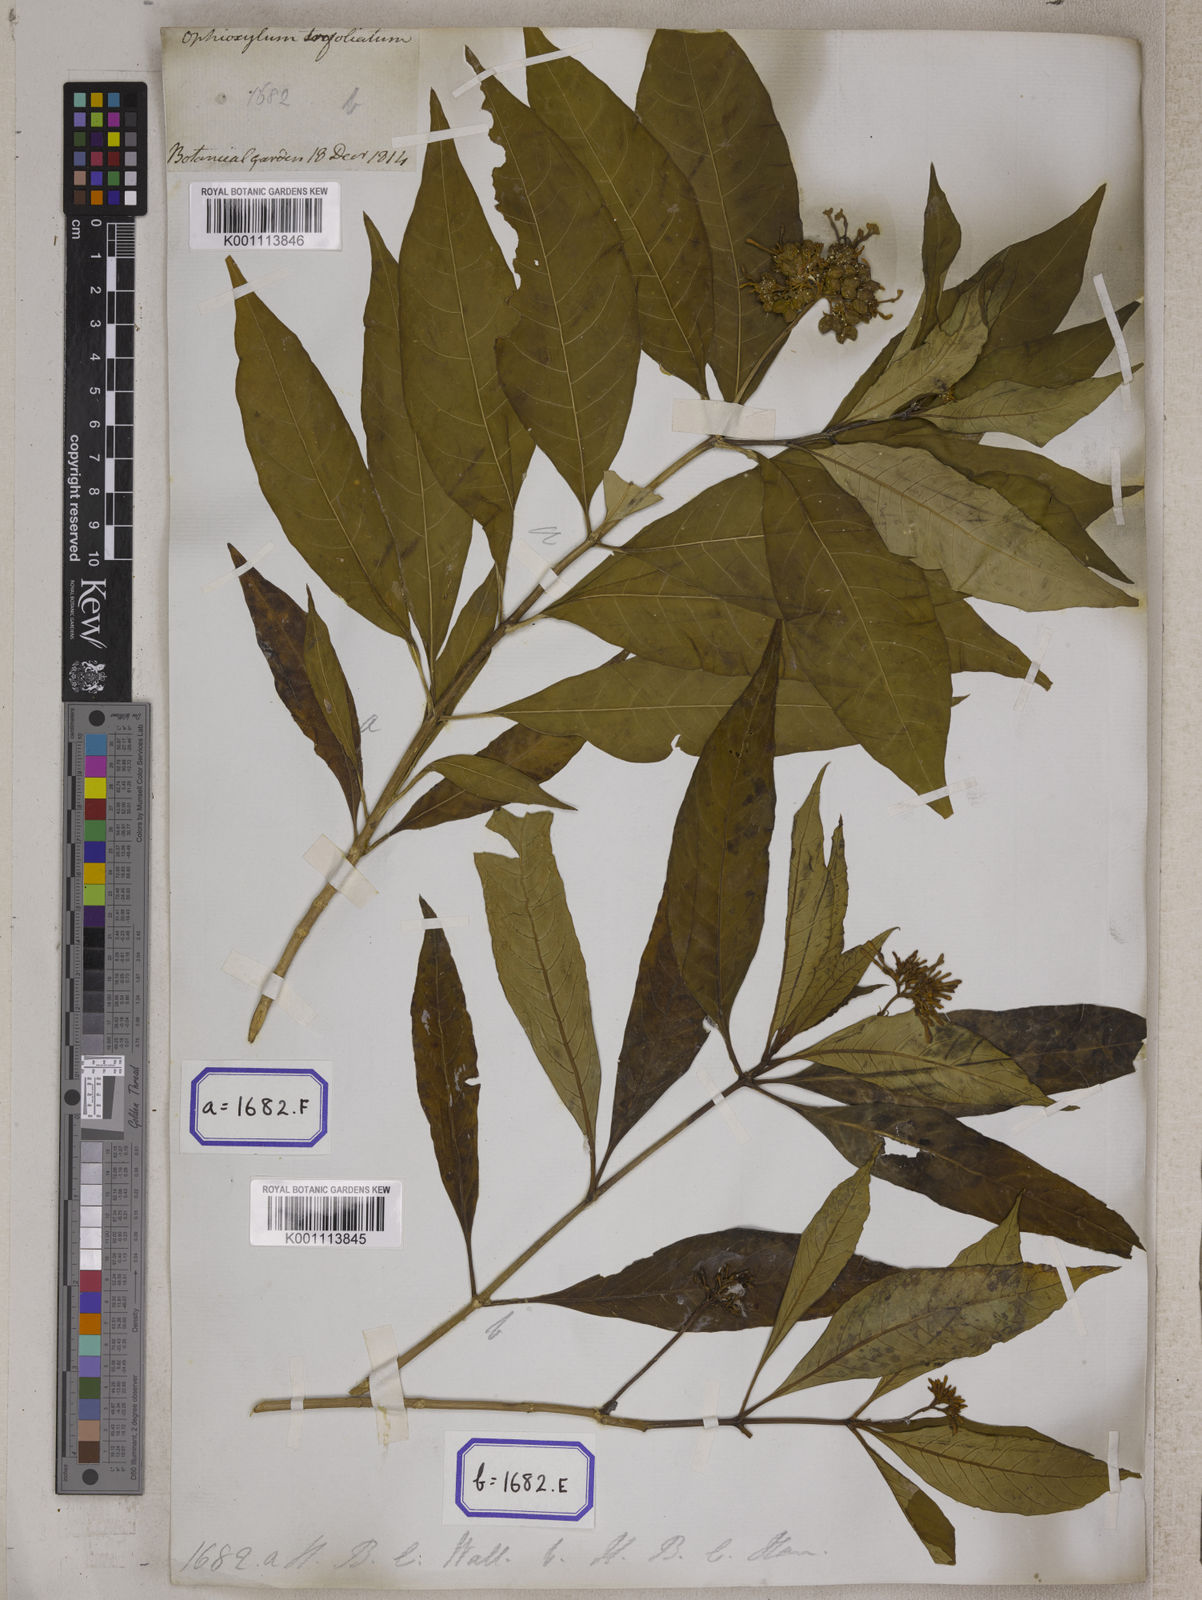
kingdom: Plantae
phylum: Tracheophyta
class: Magnoliopsida
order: Gentianales
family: Apocynaceae
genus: Rauvolfia
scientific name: Rauvolfia serpentina
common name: Ajmaline
